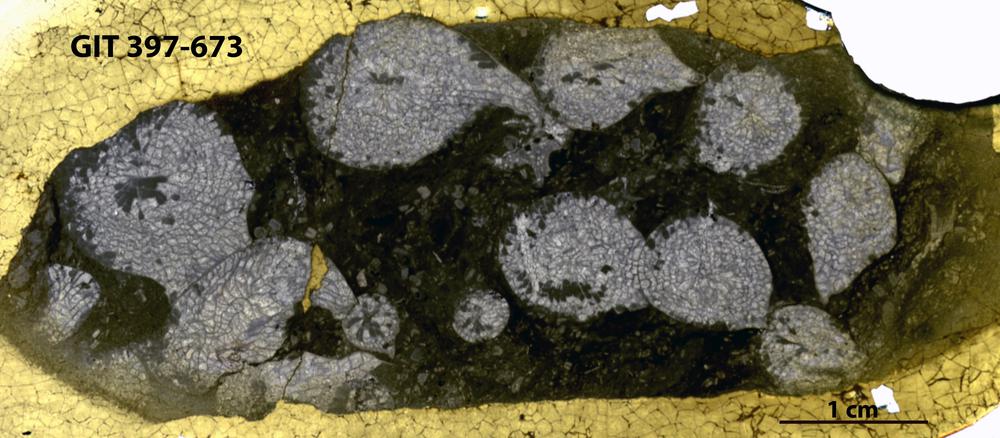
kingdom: Animalia
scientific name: Animalia
